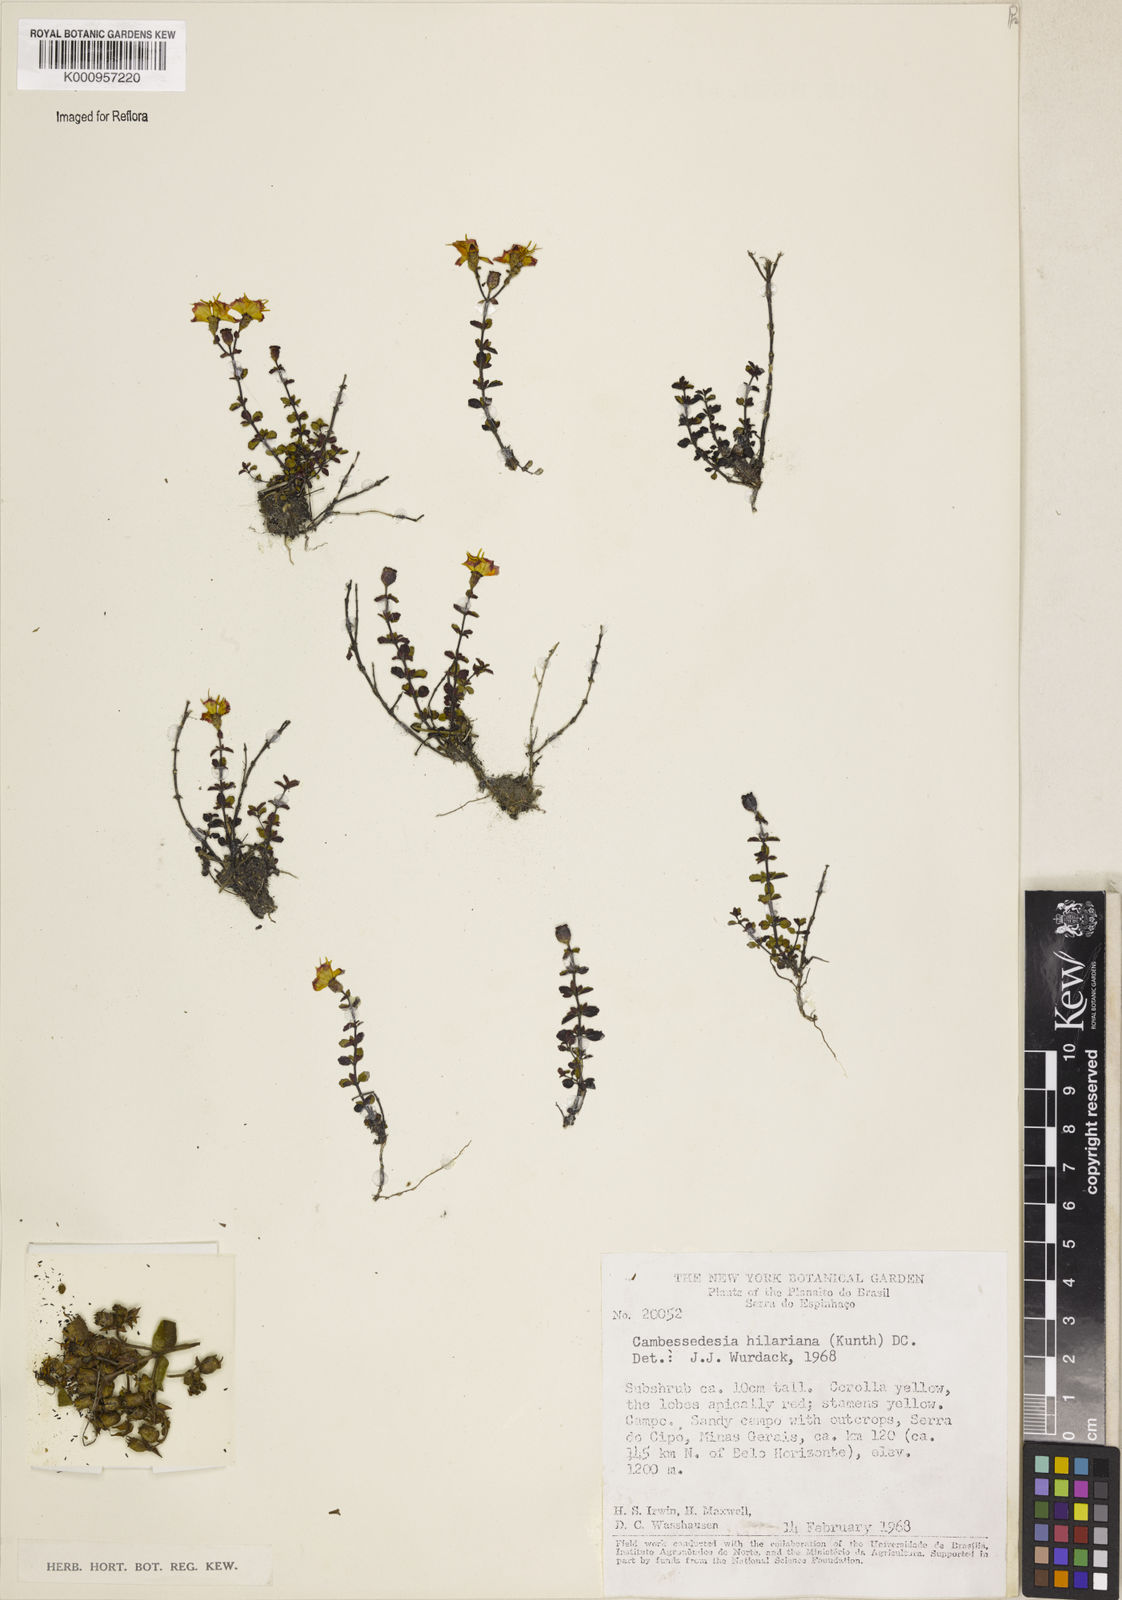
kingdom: Plantae
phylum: Tracheophyta
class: Magnoliopsida
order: Myrtales
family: Melastomataceae
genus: Cambessedesia
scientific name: Cambessedesia hilariana
